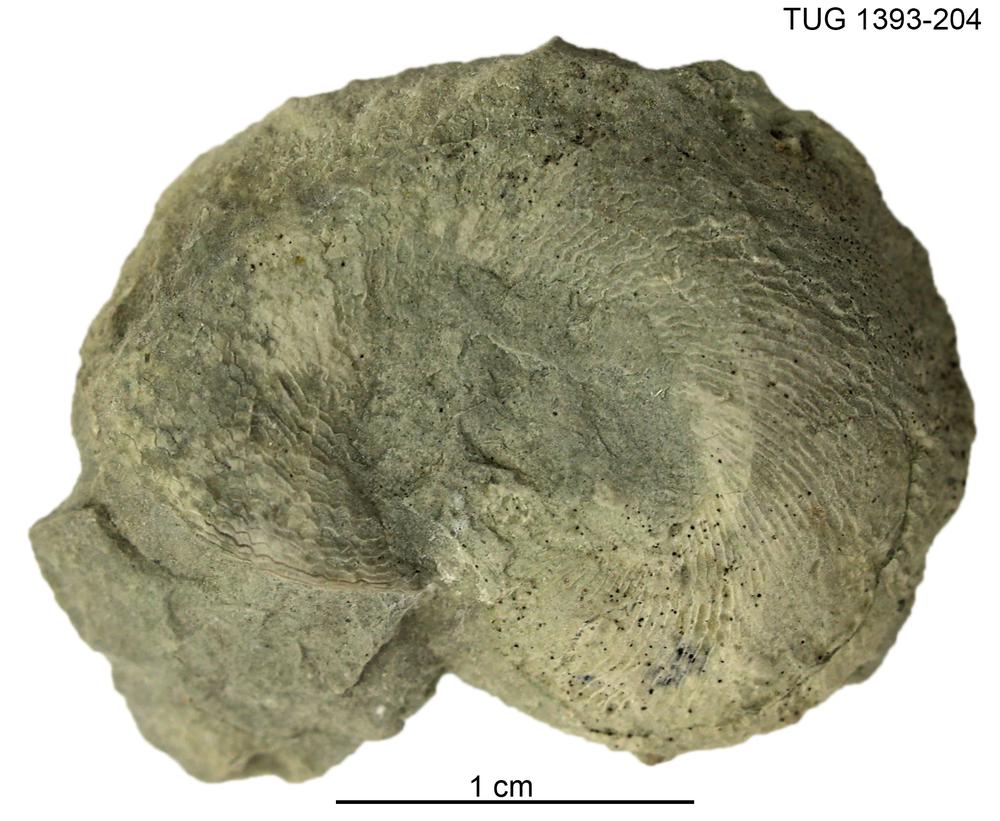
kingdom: Animalia
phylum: Mollusca
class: Cephalopoda
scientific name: Cephalopoda
